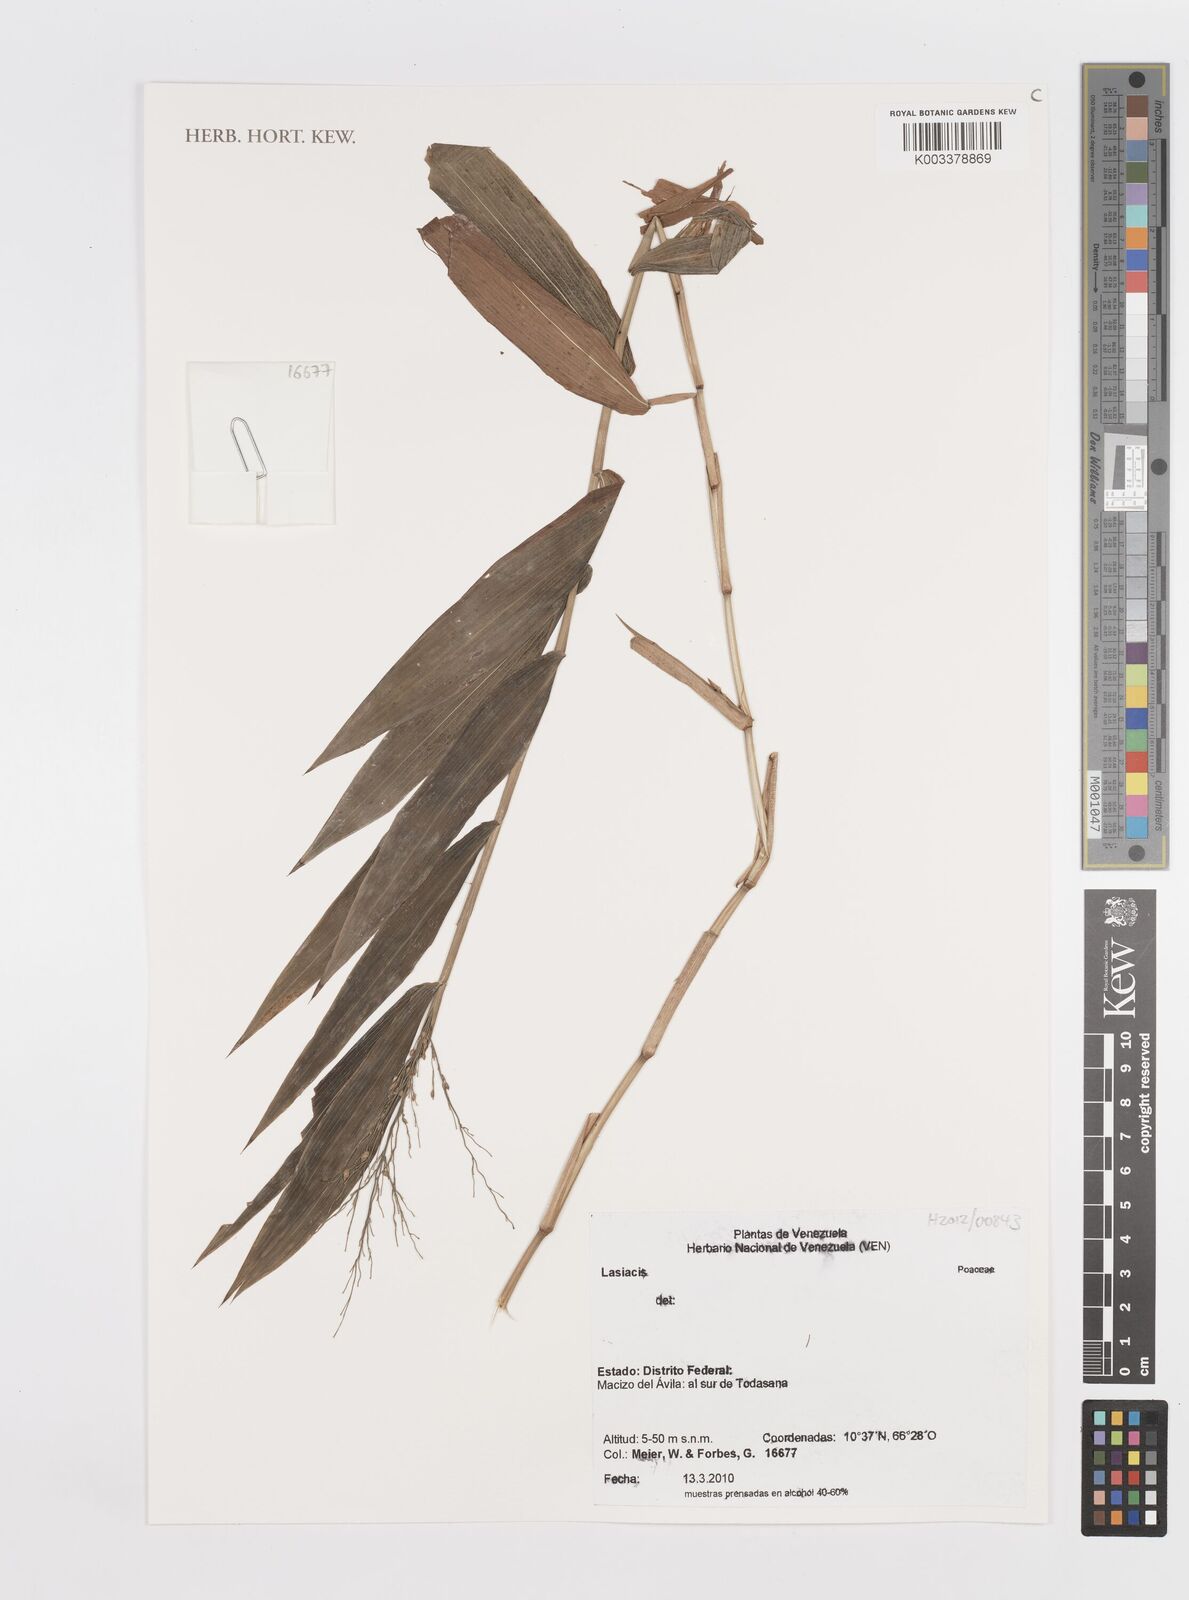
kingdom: Plantae
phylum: Tracheophyta
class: Liliopsida
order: Poales
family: Poaceae
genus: Lasiacis
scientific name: Lasiacis
